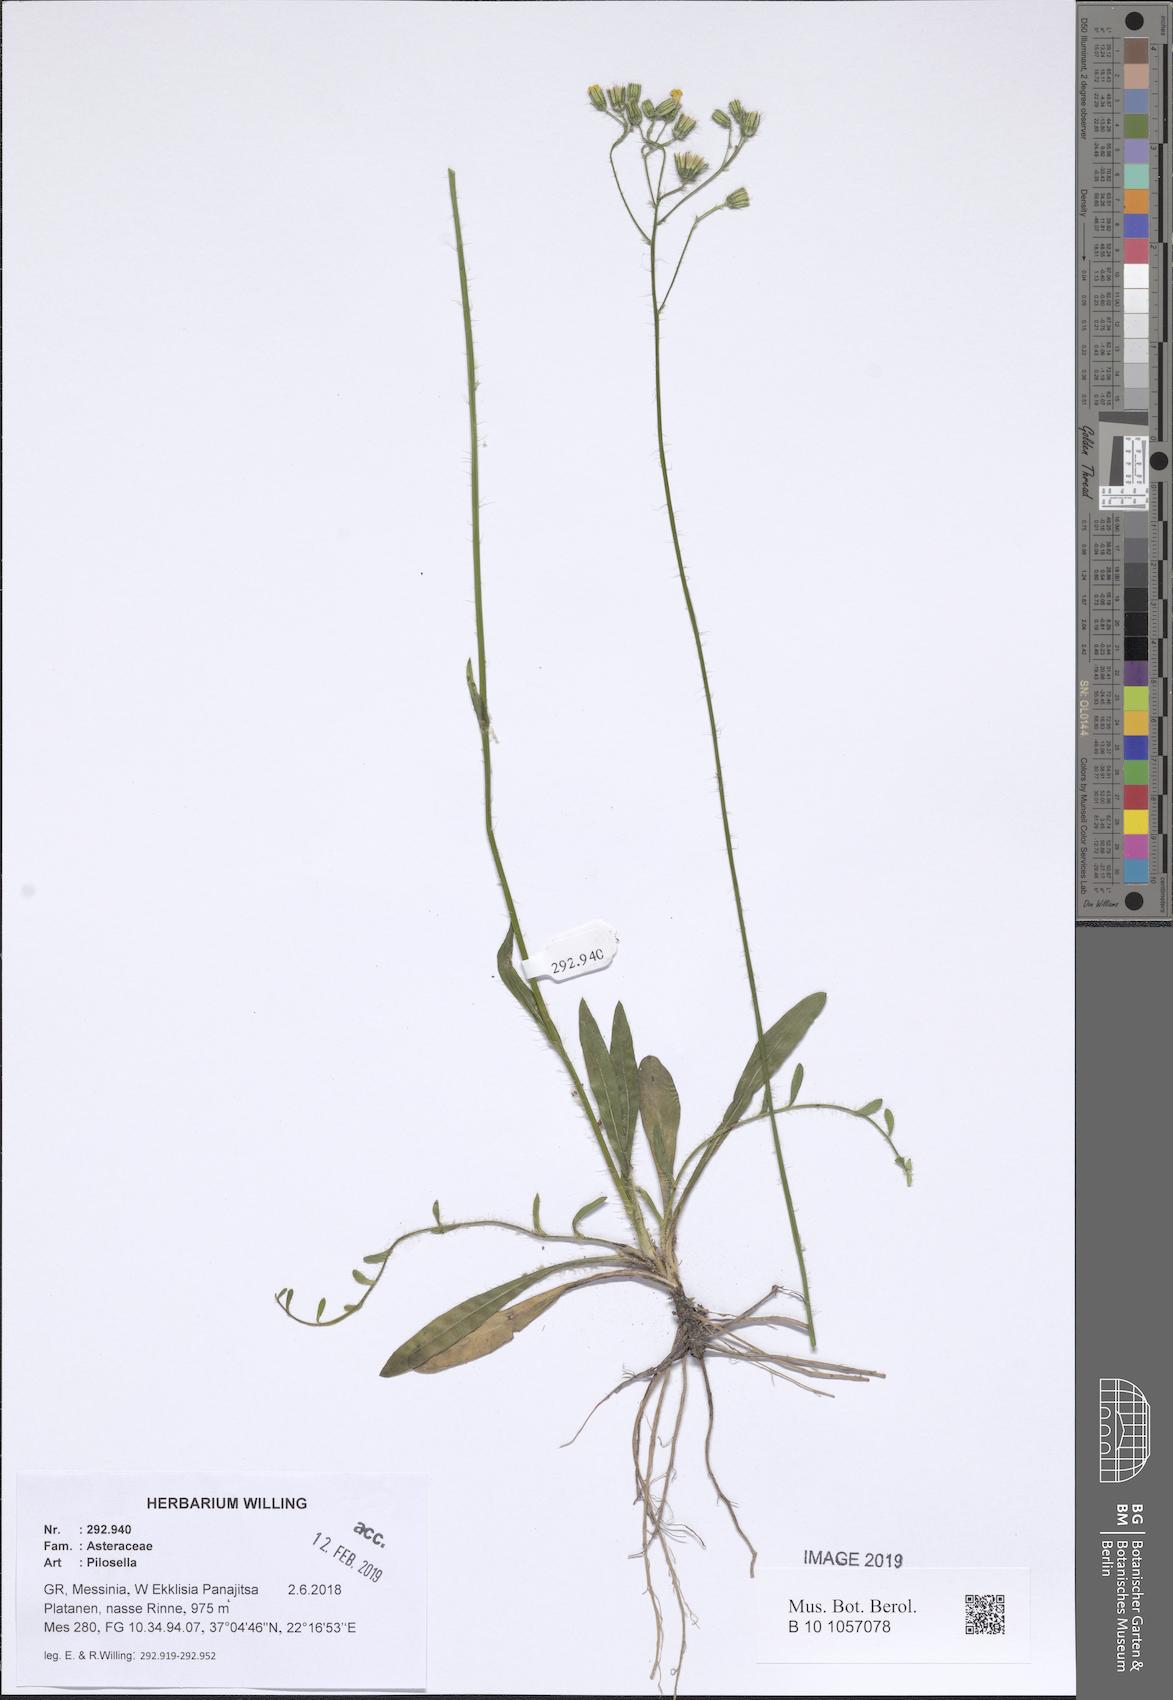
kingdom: Plantae
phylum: Tracheophyta
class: Magnoliopsida
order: Asterales
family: Asteraceae
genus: Pilosella
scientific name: Pilosella
